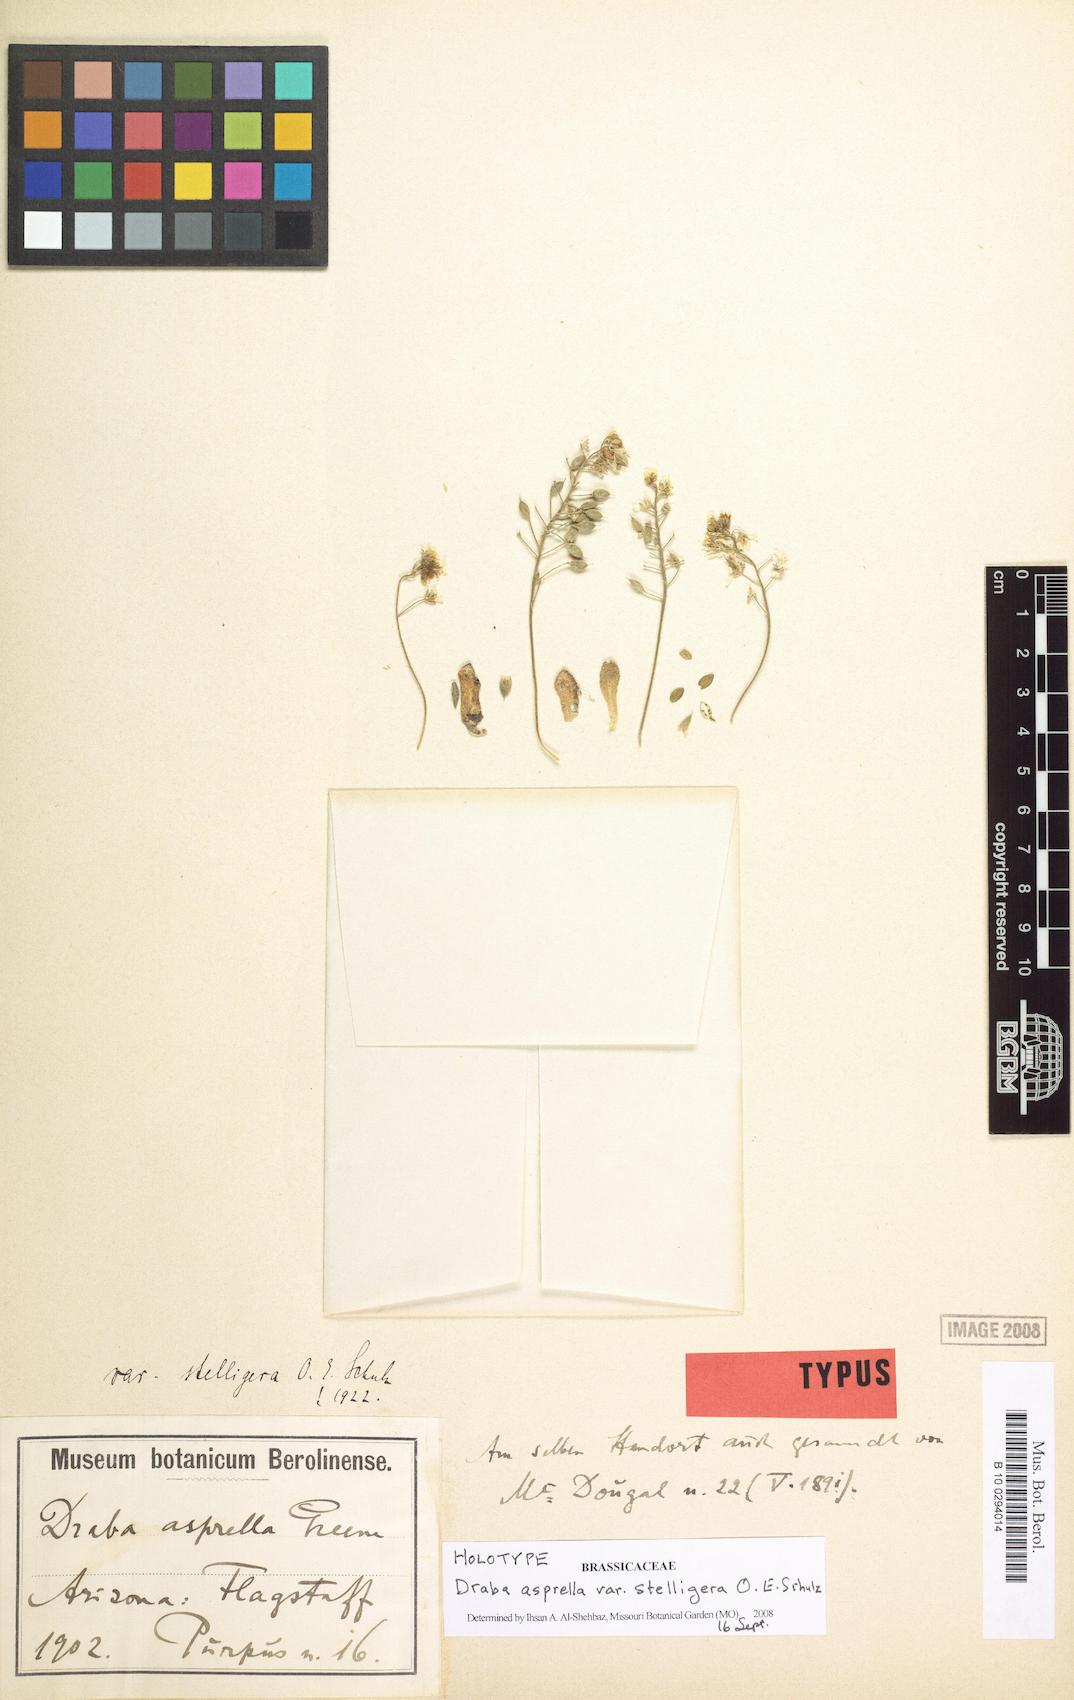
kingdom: Plantae
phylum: Tracheophyta
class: Magnoliopsida
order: Brassicales
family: Brassicaceae
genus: Draba
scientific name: Draba asprella
